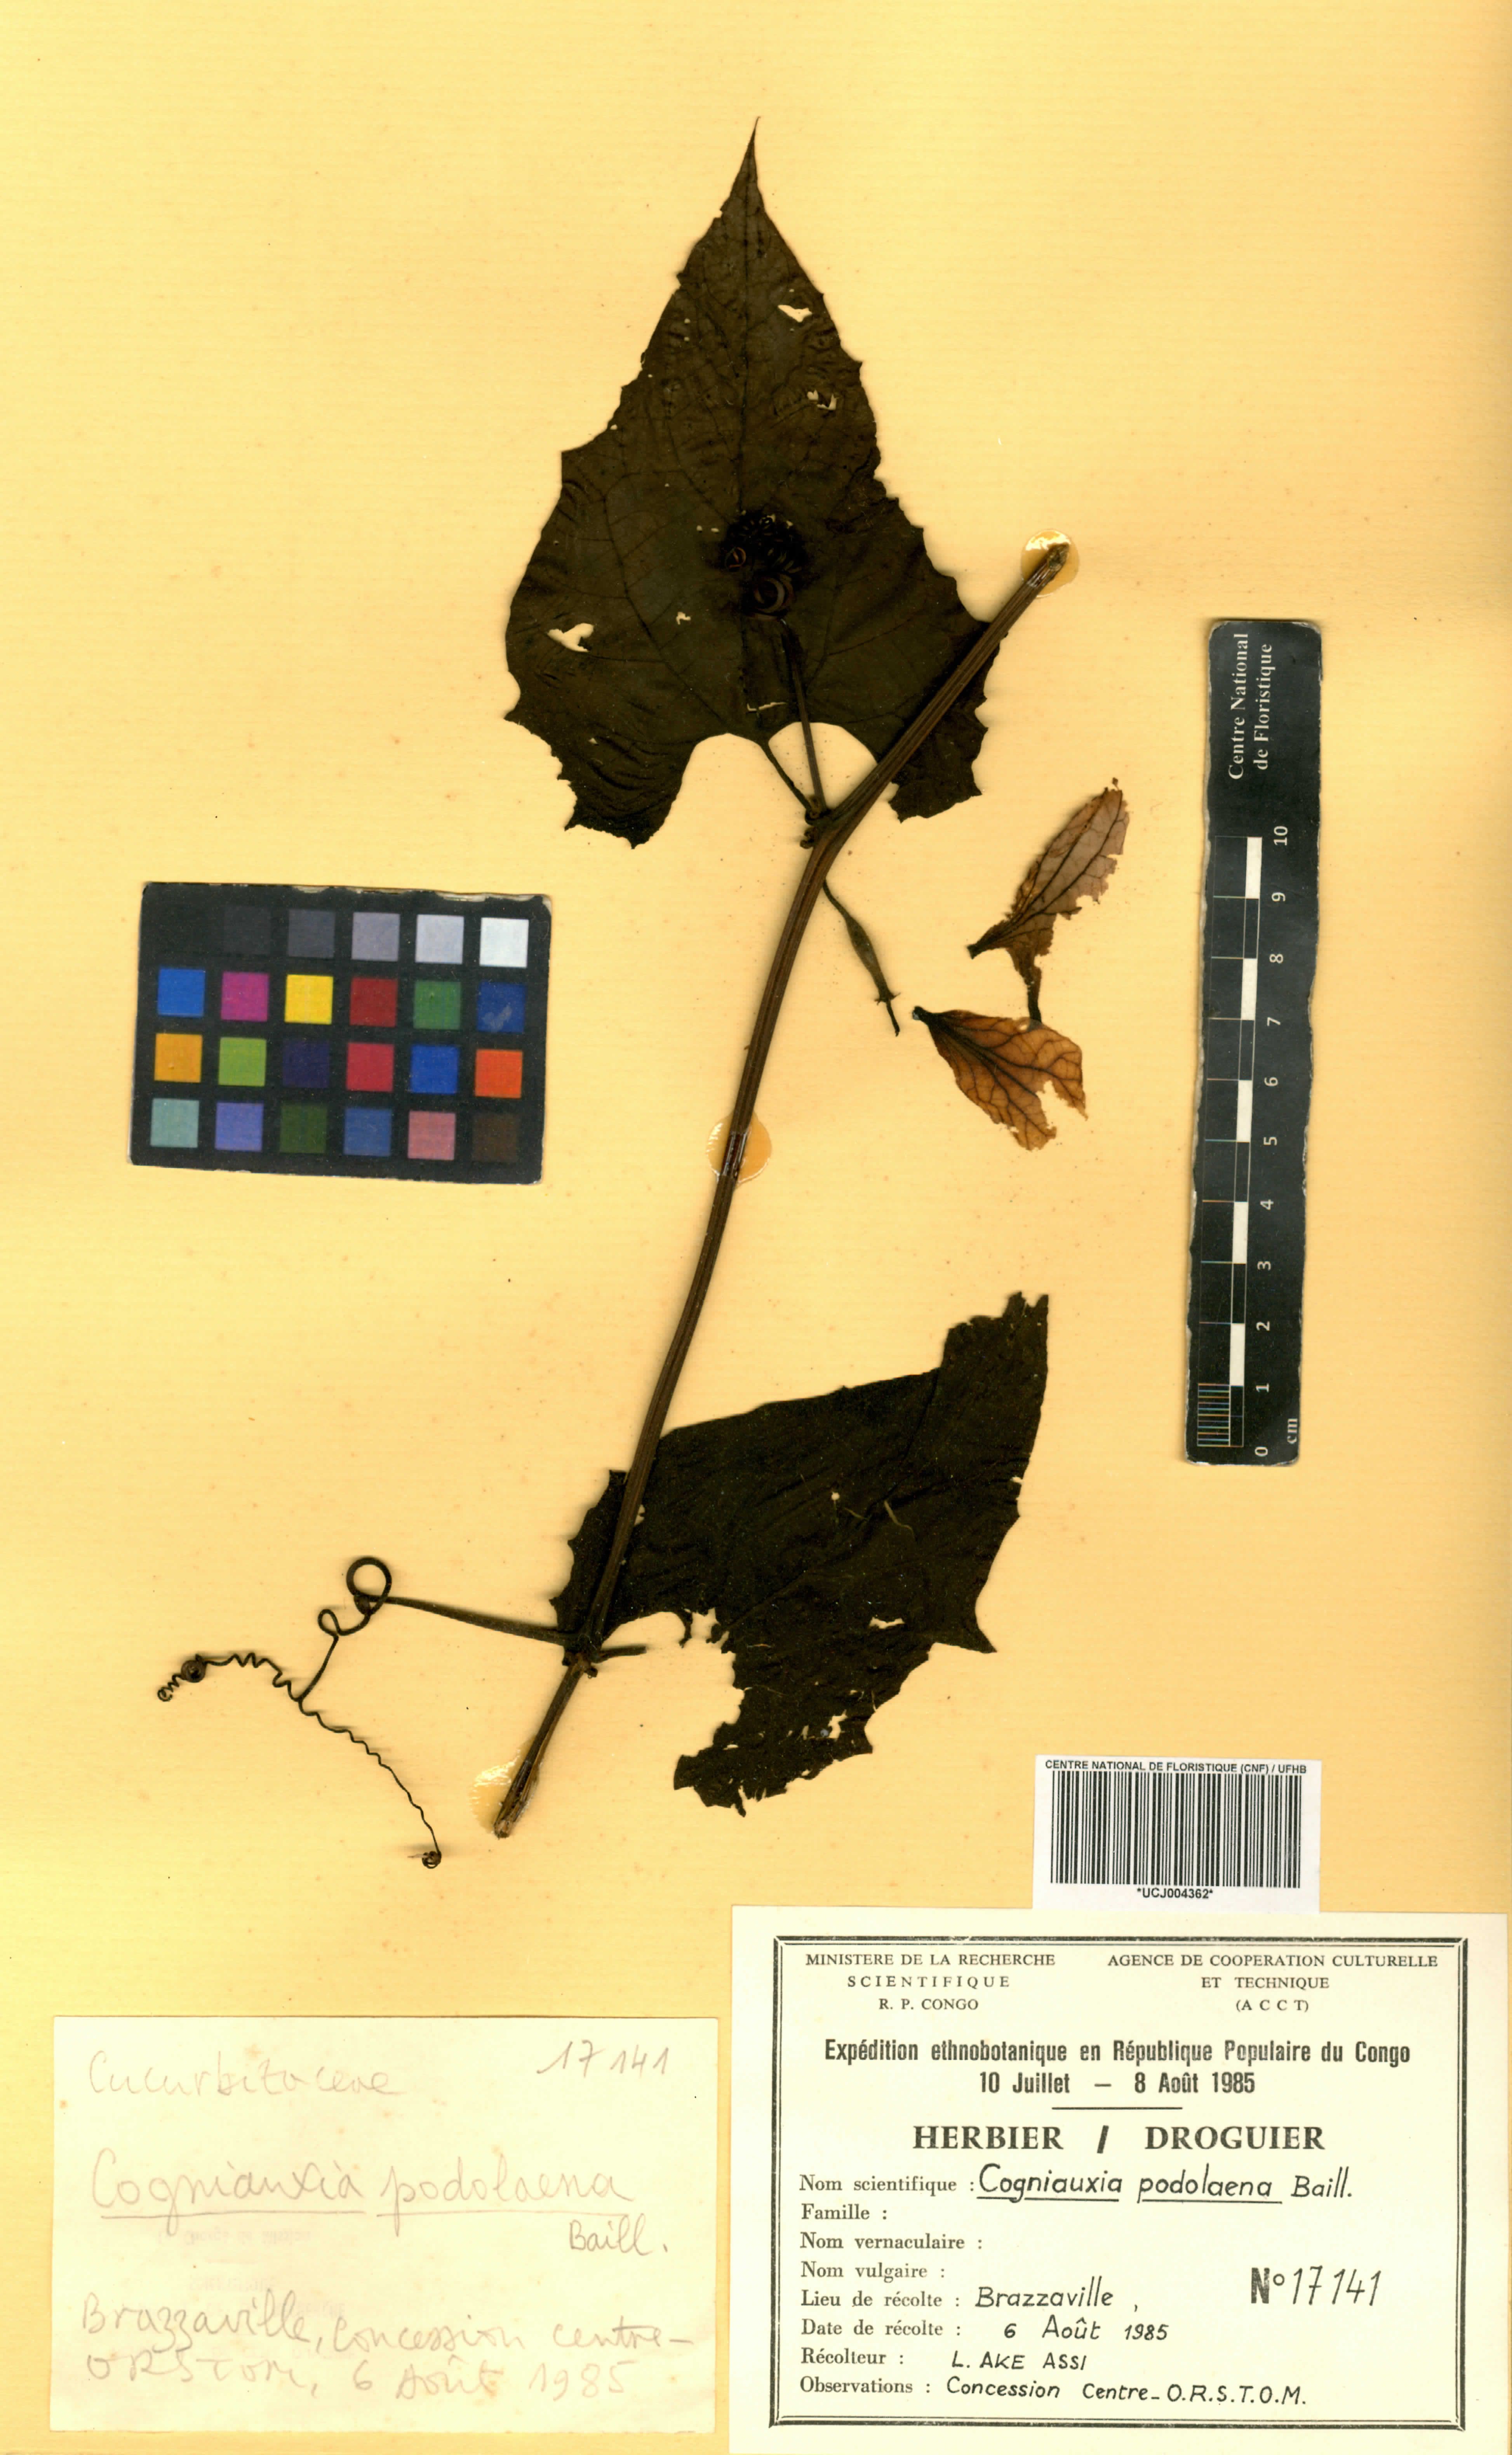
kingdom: Plantae
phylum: Tracheophyta
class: Magnoliopsida
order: Cucurbitales
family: Cucurbitaceae
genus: Cogniauxia
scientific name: Cogniauxia podolaena
